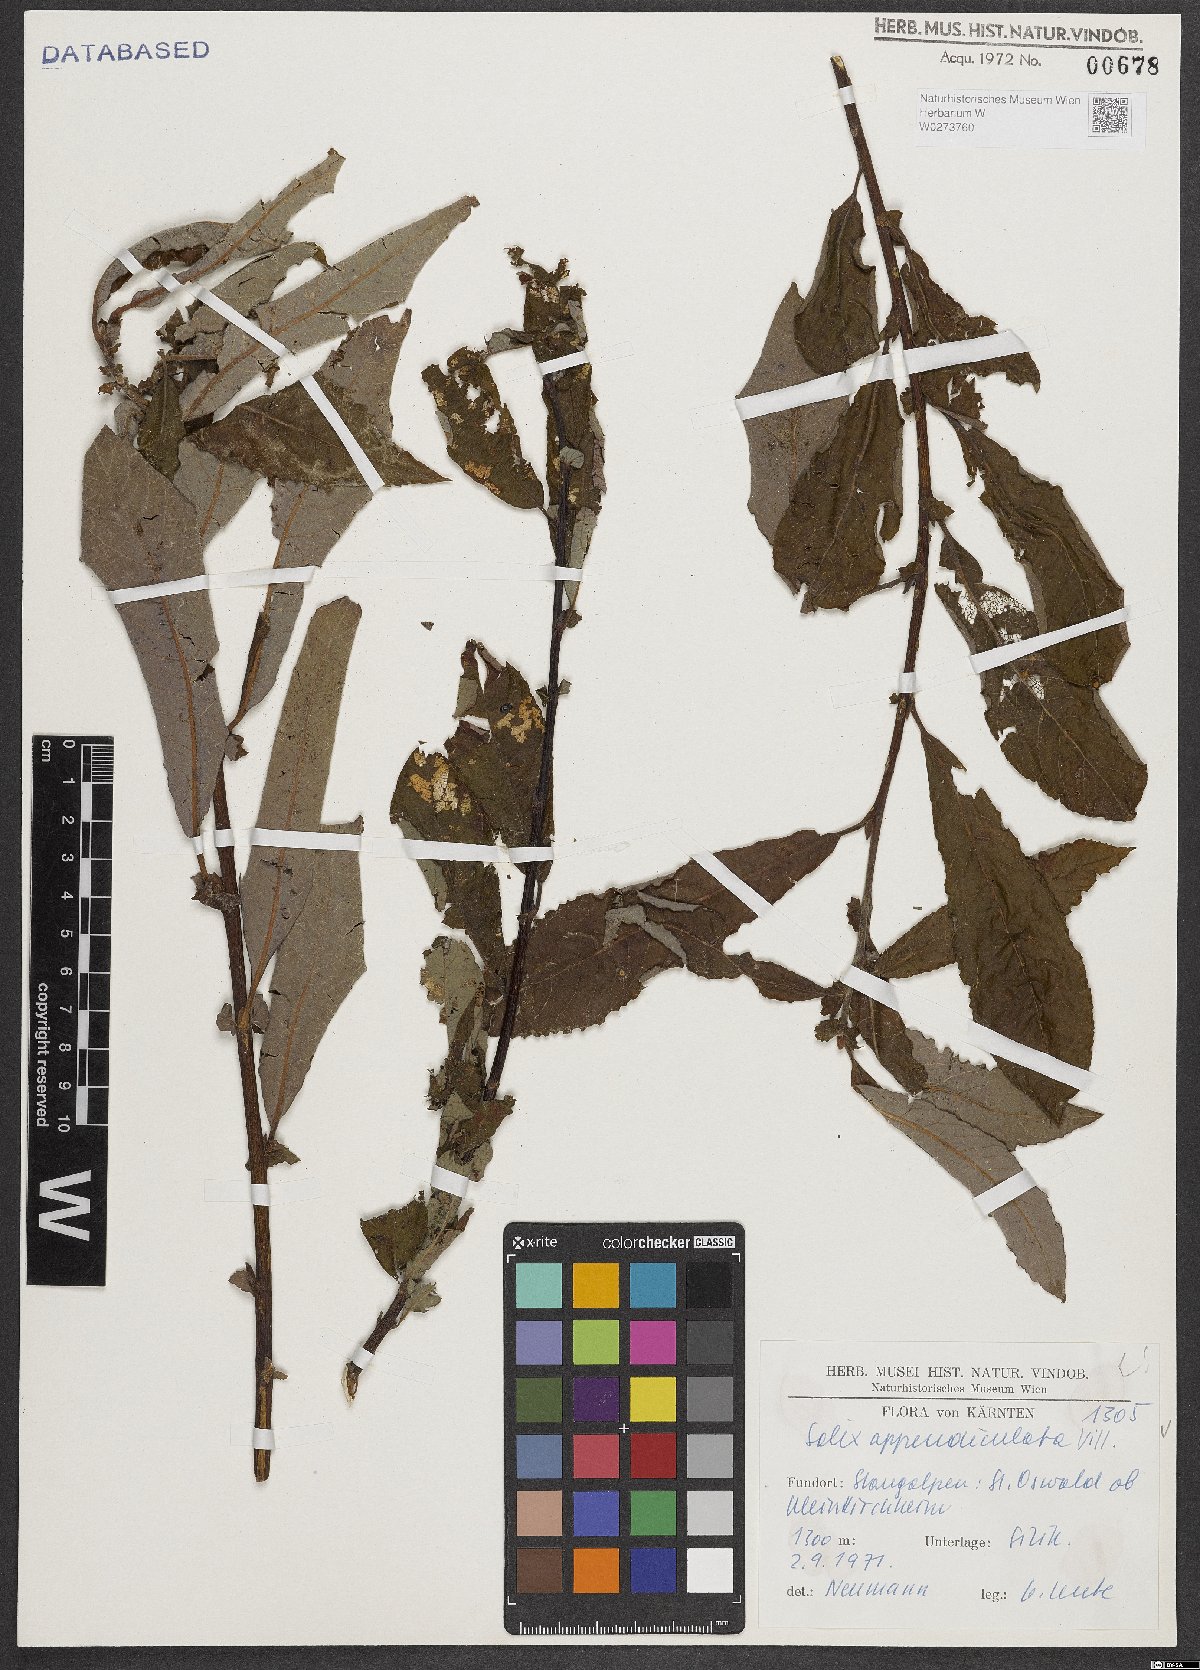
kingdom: Plantae
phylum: Tracheophyta
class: Magnoliopsida
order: Malpighiales
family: Salicaceae
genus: Salix
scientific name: Salix appendiculata
